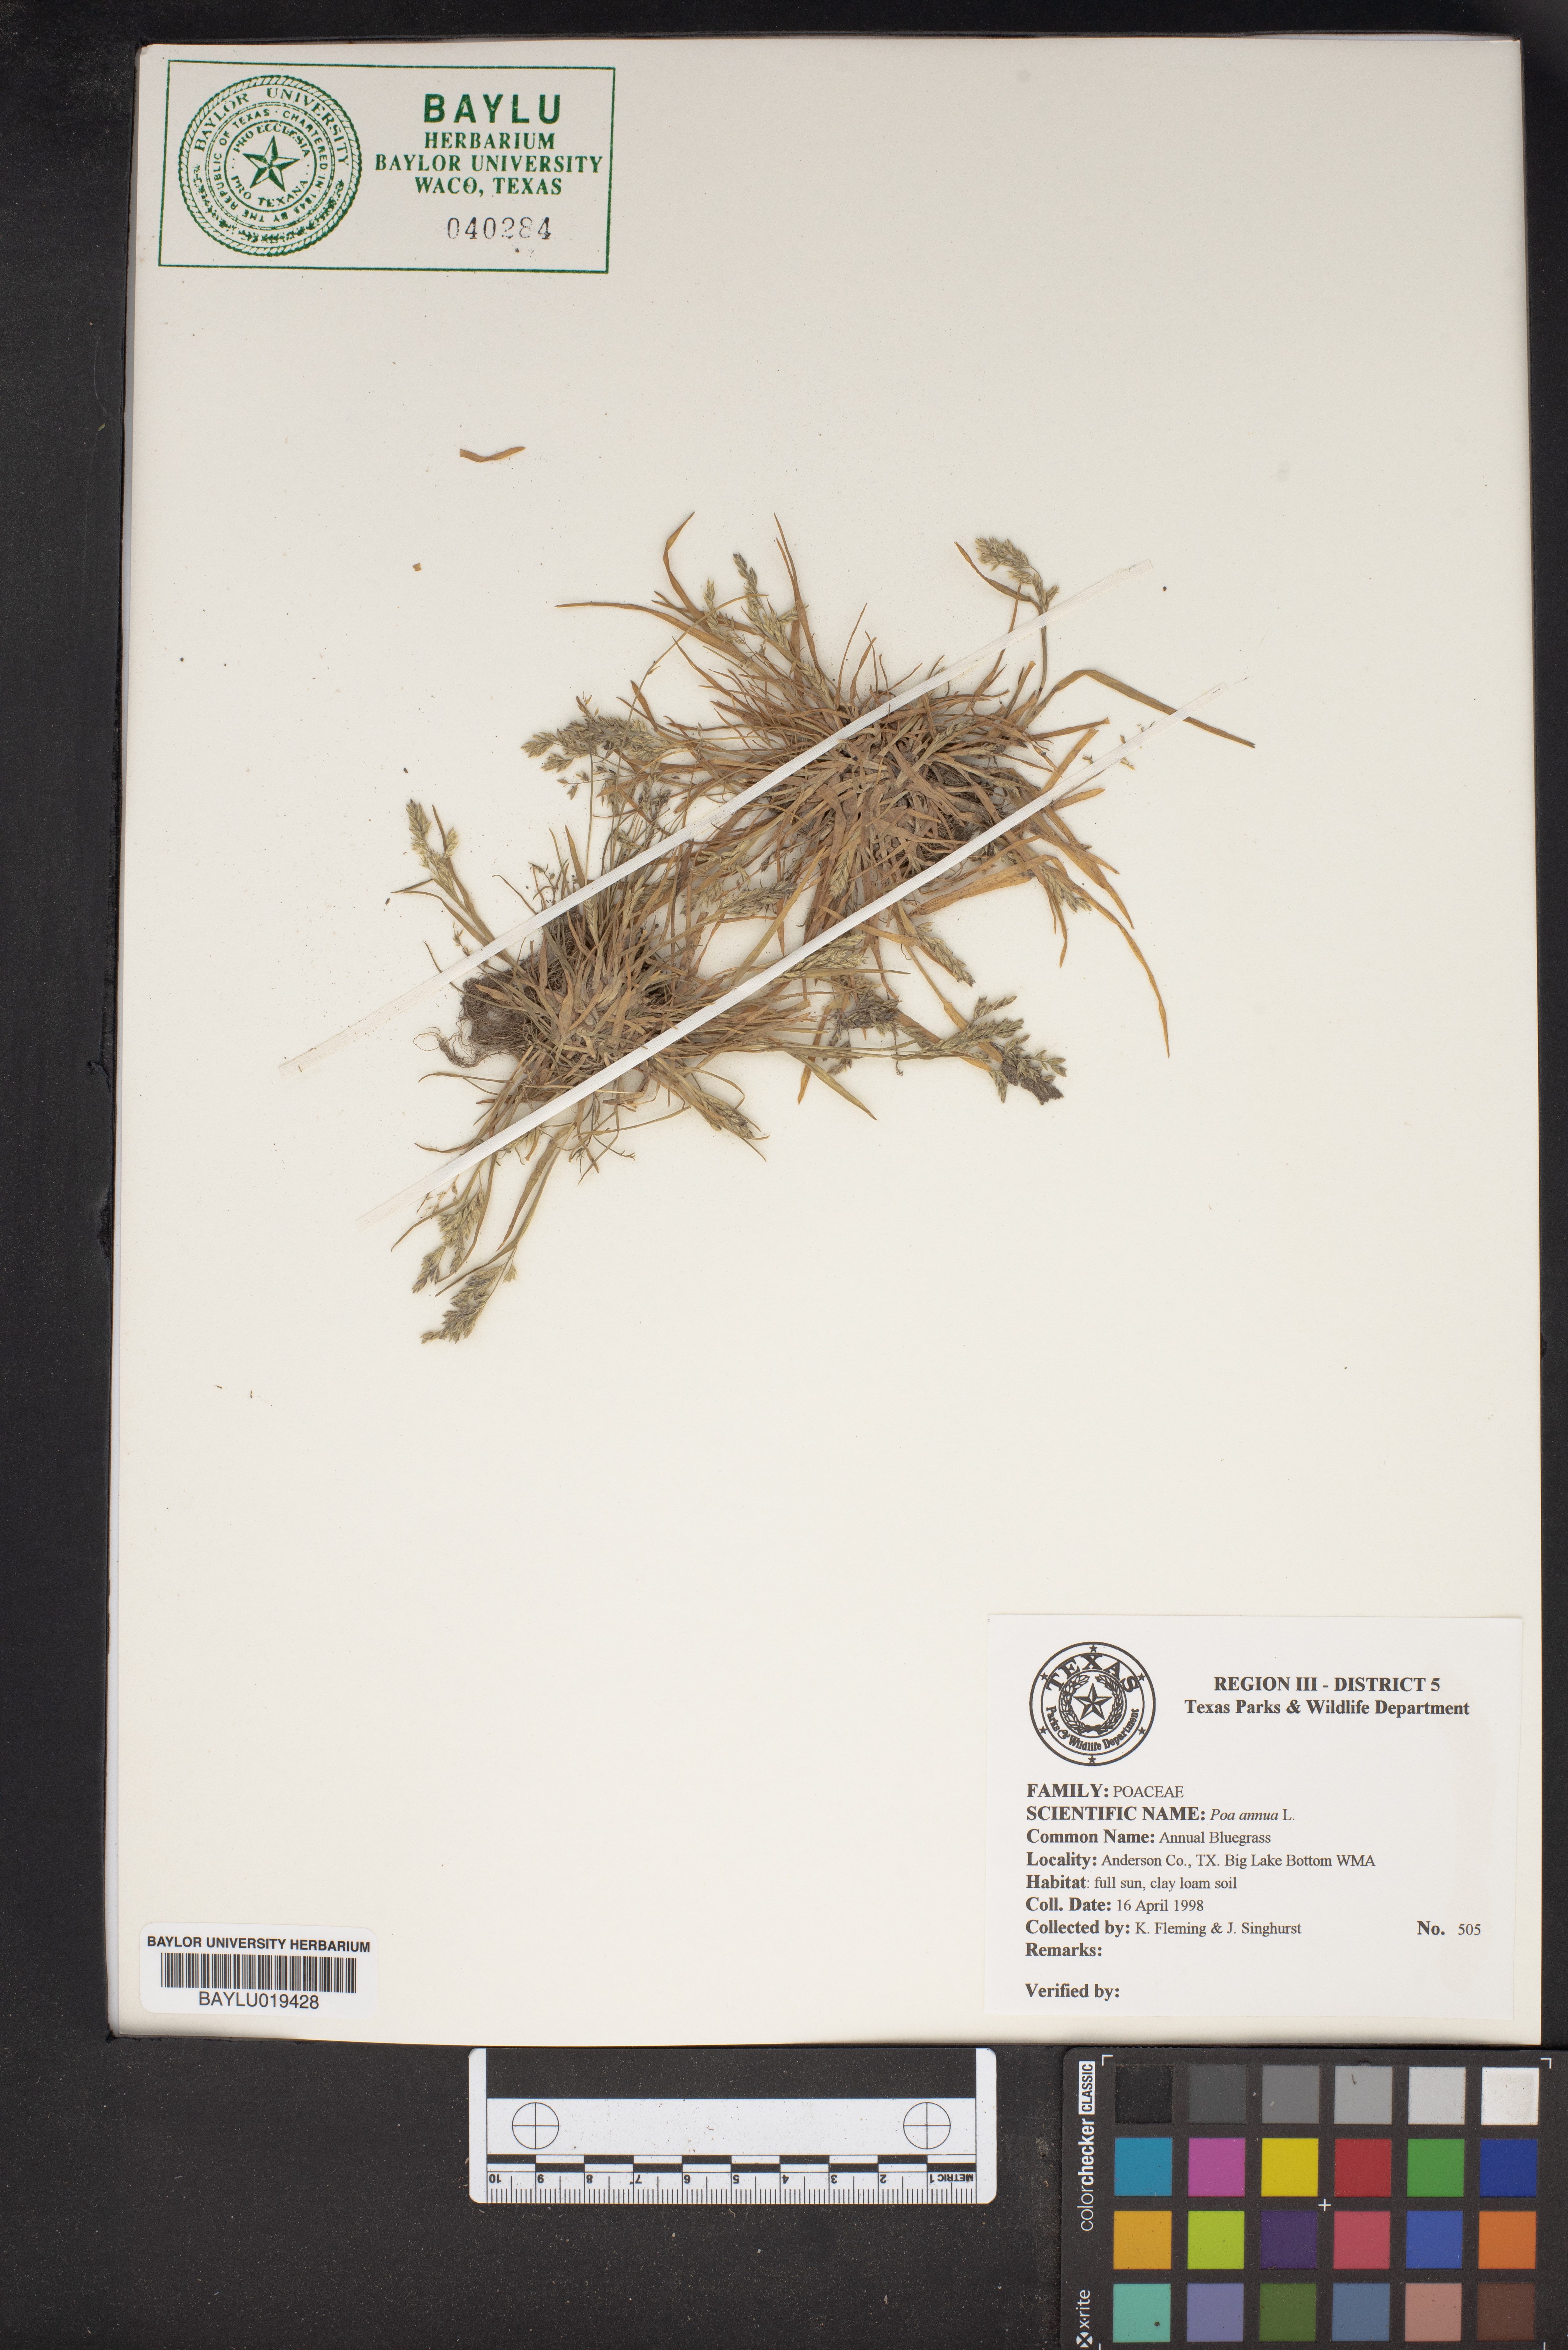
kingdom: Plantae
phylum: Tracheophyta
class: Liliopsida
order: Poales
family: Poaceae
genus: Poa
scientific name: Poa annua
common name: Annual bluegrass
